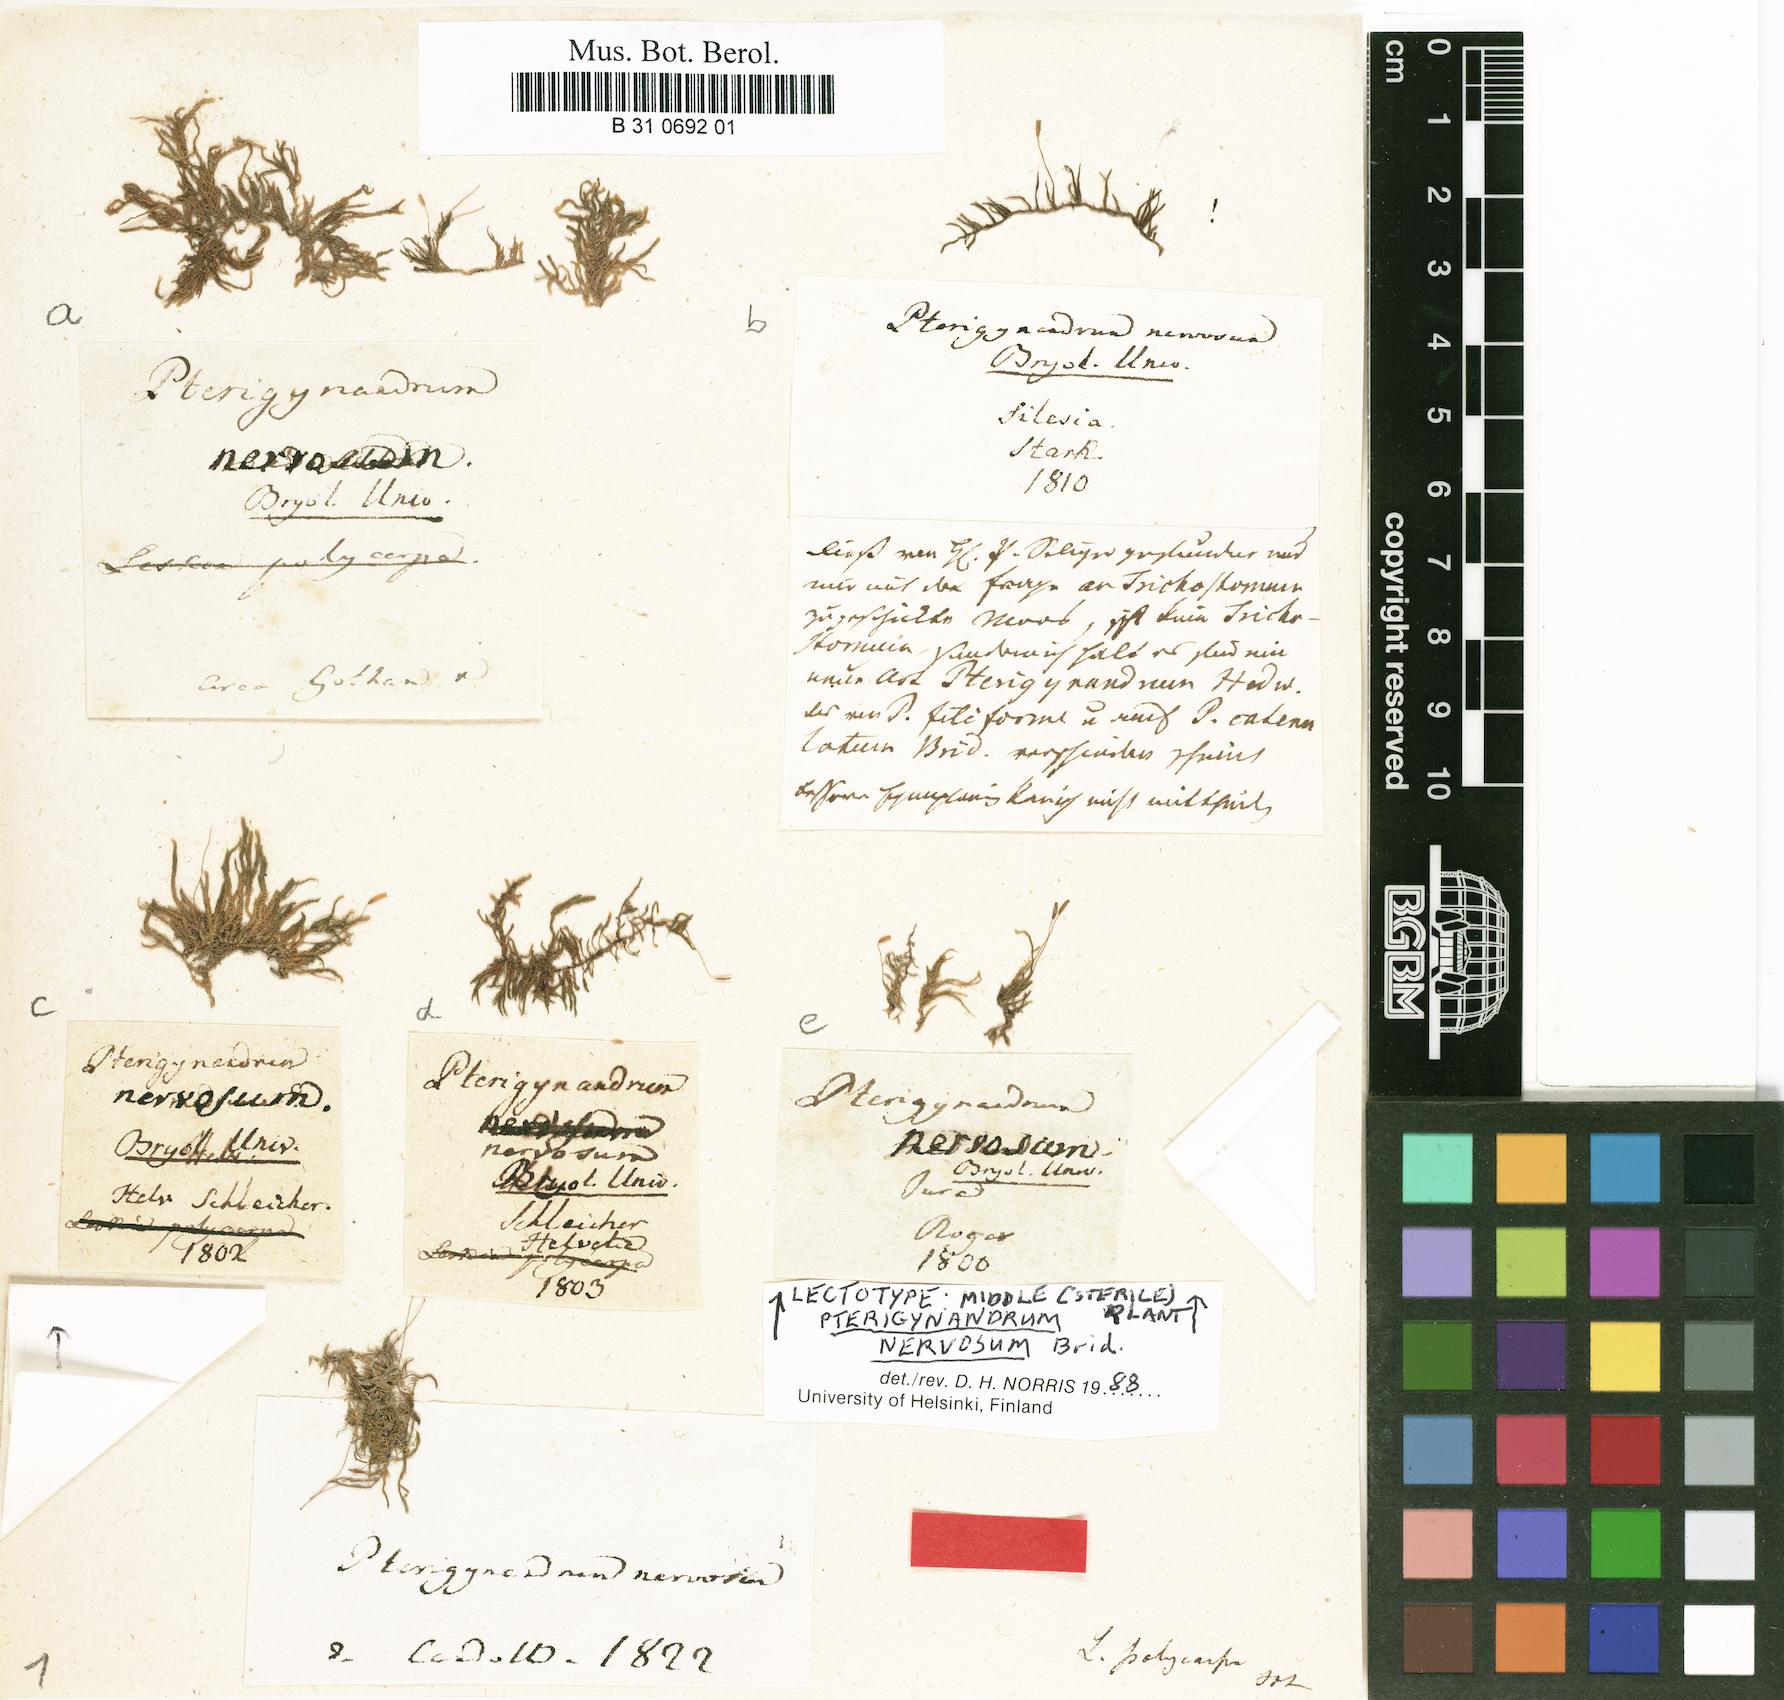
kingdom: Plantae
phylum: Bryophyta
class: Bryopsida
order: Hypnales
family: Pseudoleskeellaceae
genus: Pseudoleskeella
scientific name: Pseudoleskeella nervosa
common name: Nerved leske's moss
